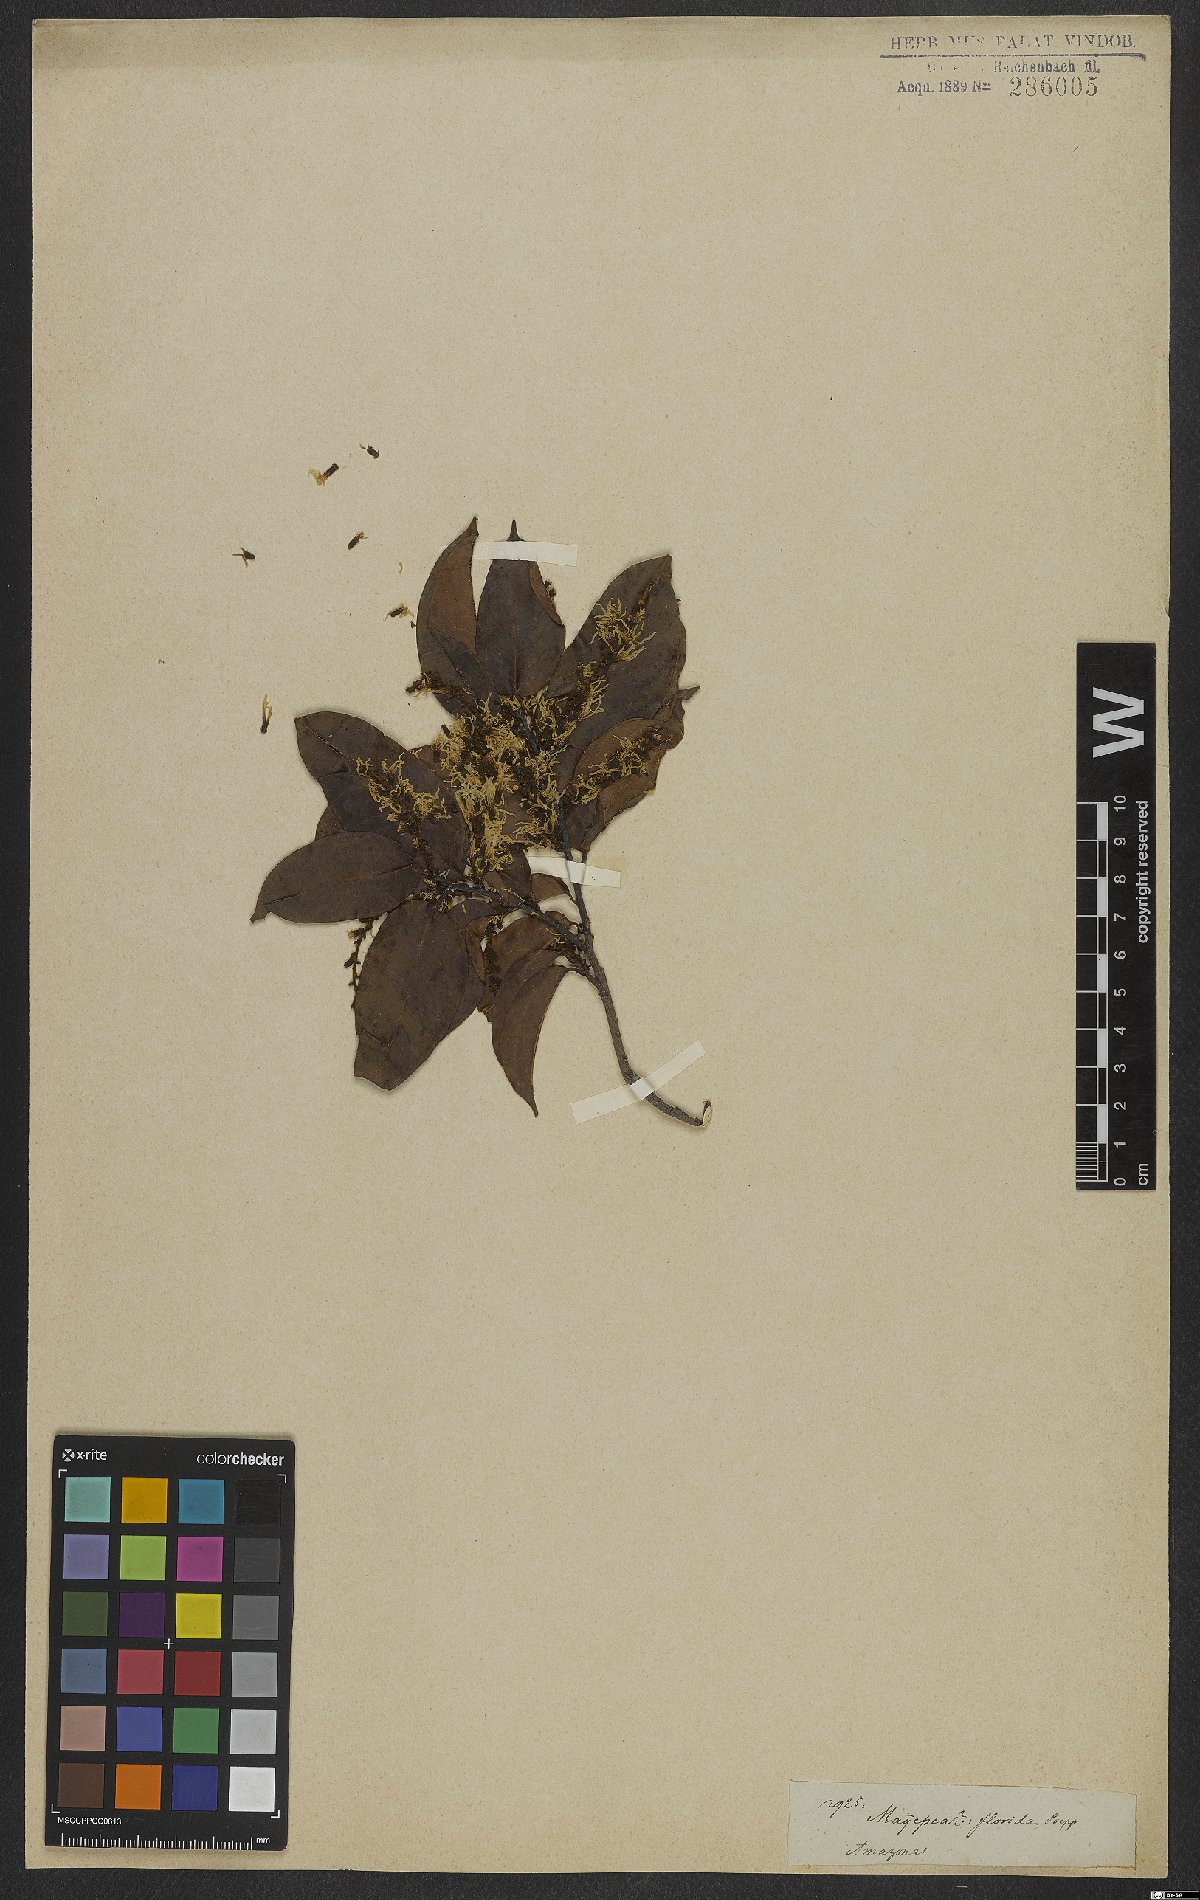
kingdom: Plantae
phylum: Tracheophyta
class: Magnoliopsida
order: Lamiales
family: Oleaceae
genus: Chionanthus
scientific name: Chionanthus
